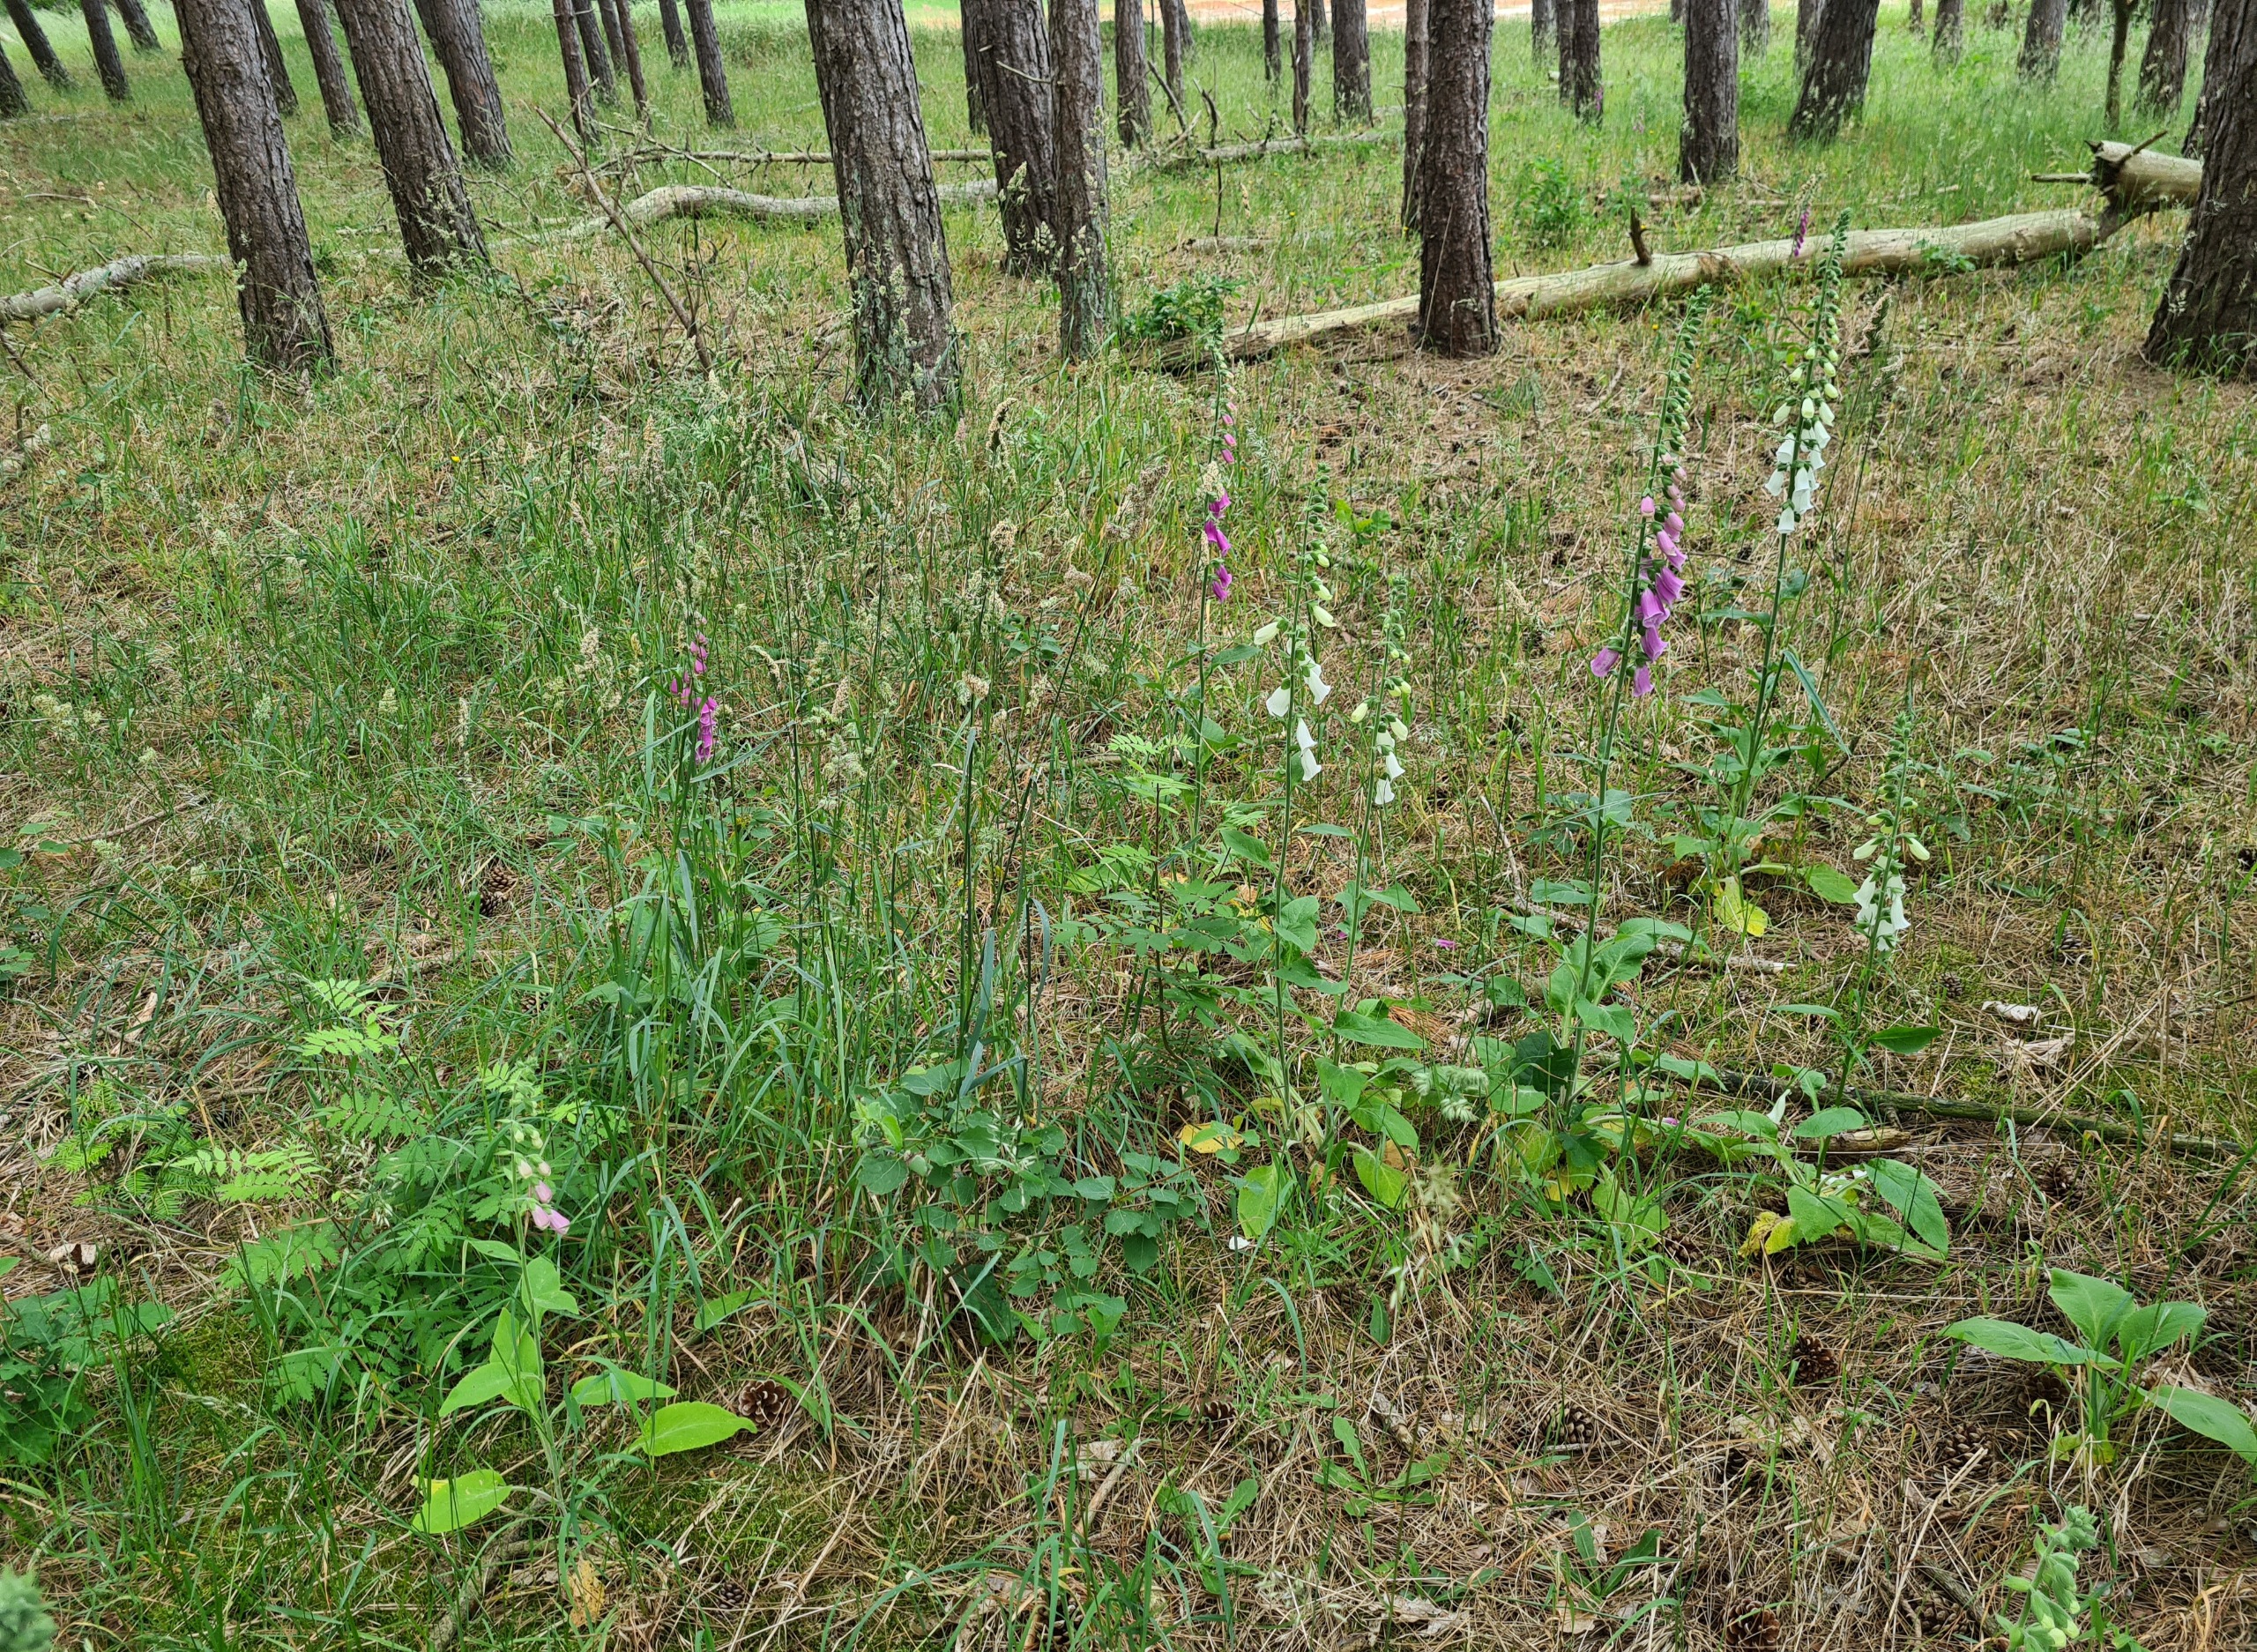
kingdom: Plantae
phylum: Tracheophyta
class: Magnoliopsida
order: Lamiales
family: Plantaginaceae
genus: Digitalis
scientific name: Digitalis purpurea
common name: Almindelig fingerbøl
